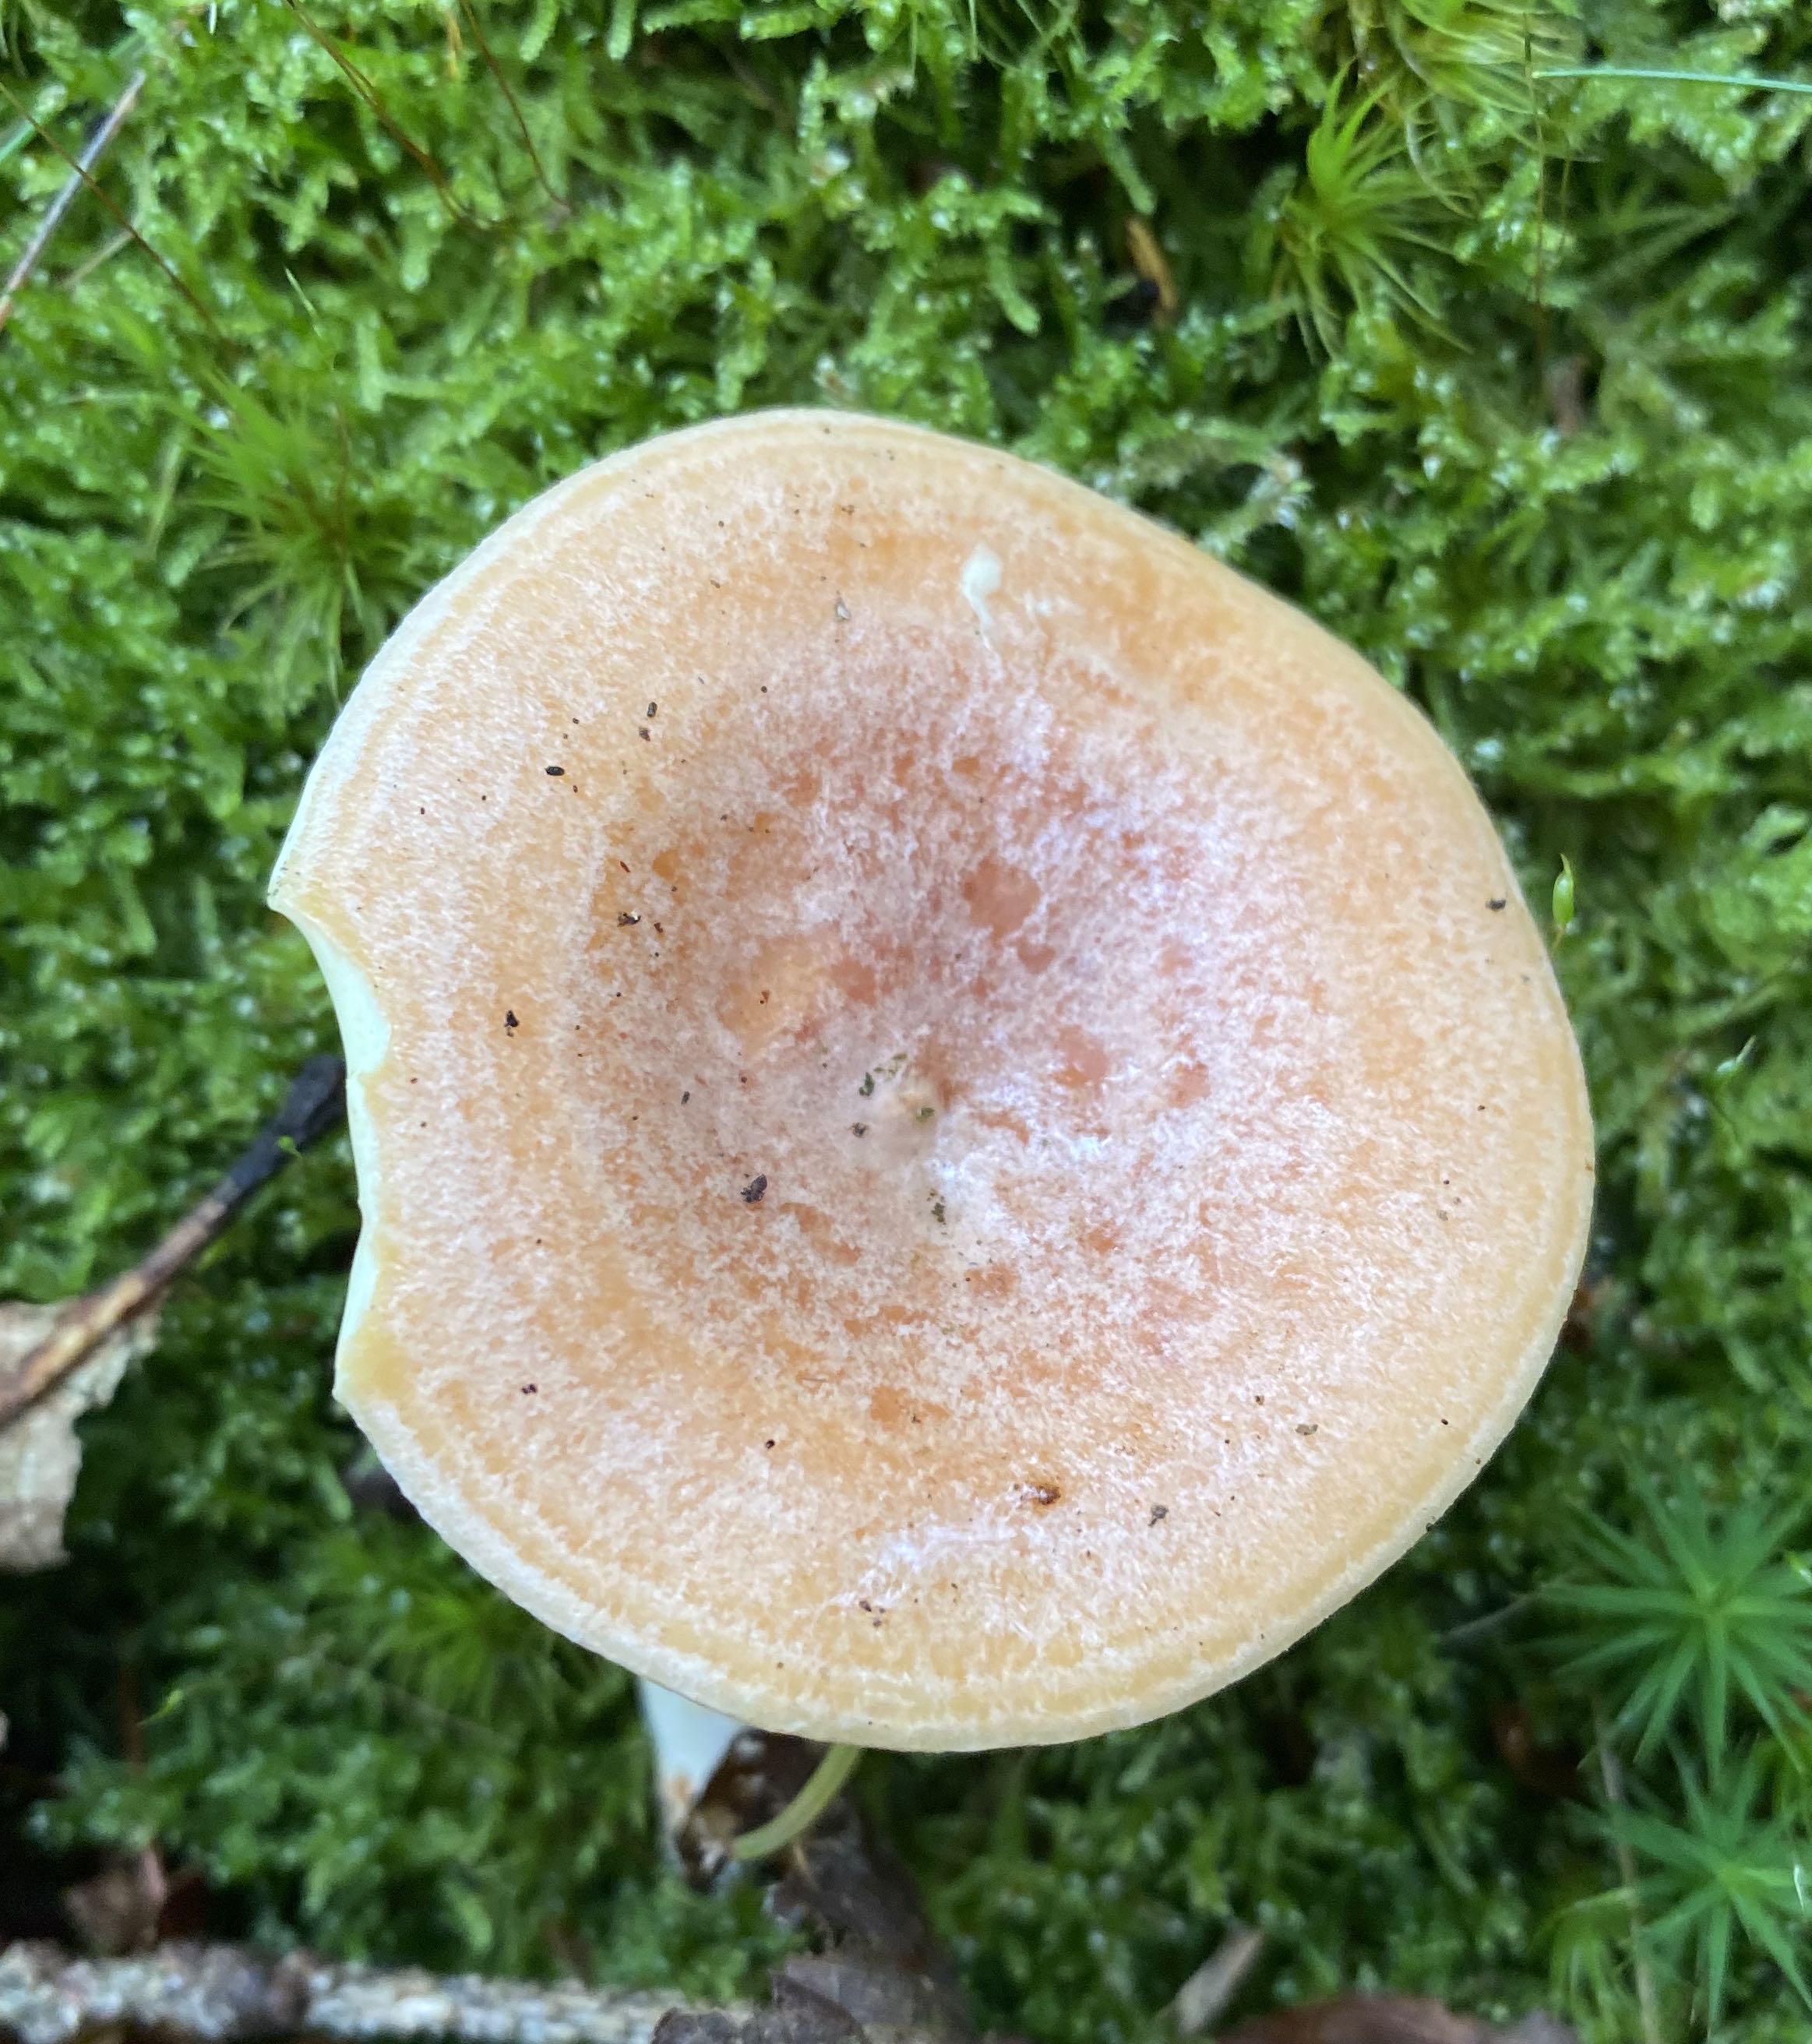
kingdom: Fungi
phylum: Basidiomycota
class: Agaricomycetes
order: Russulales
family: Russulaceae
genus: Lactarius
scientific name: Lactarius chrysorrheus
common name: svovlmælket mælkehat
